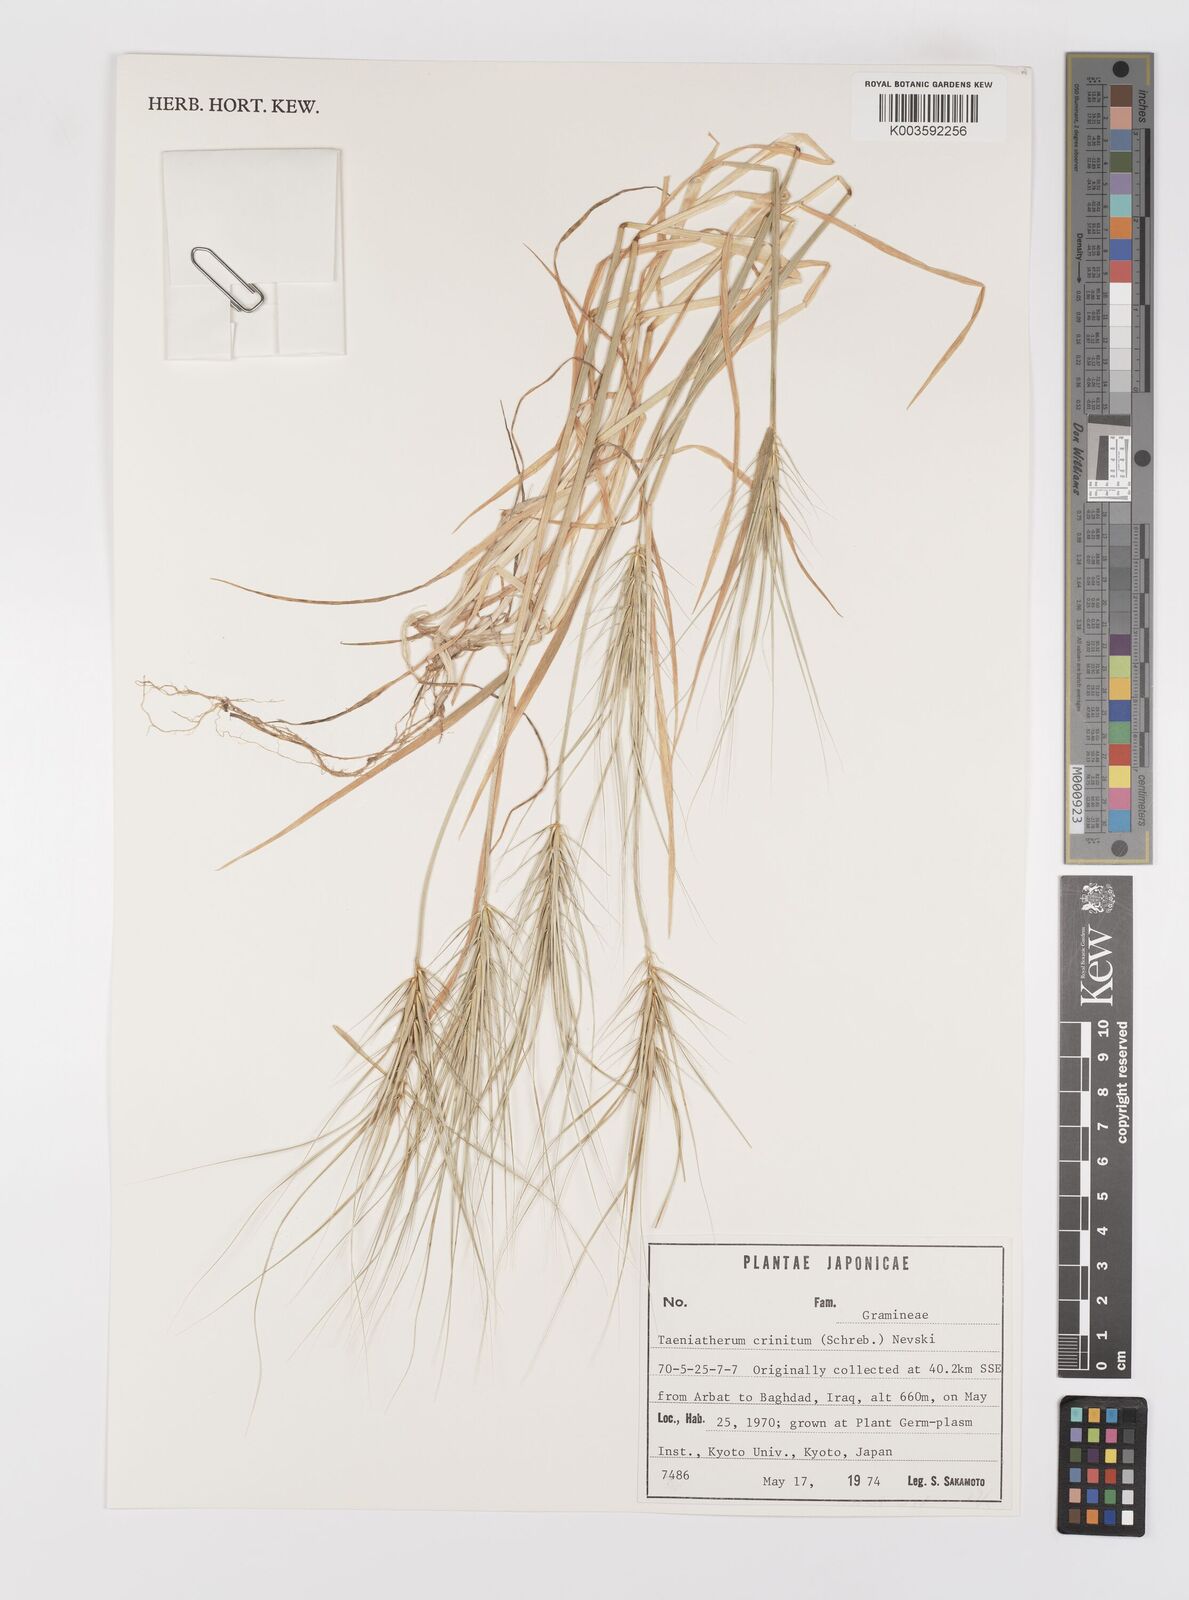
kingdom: Plantae
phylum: Tracheophyta
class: Liliopsida
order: Poales
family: Poaceae
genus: Taeniatherum
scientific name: Taeniatherum caput-medusae
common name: Medusahead
